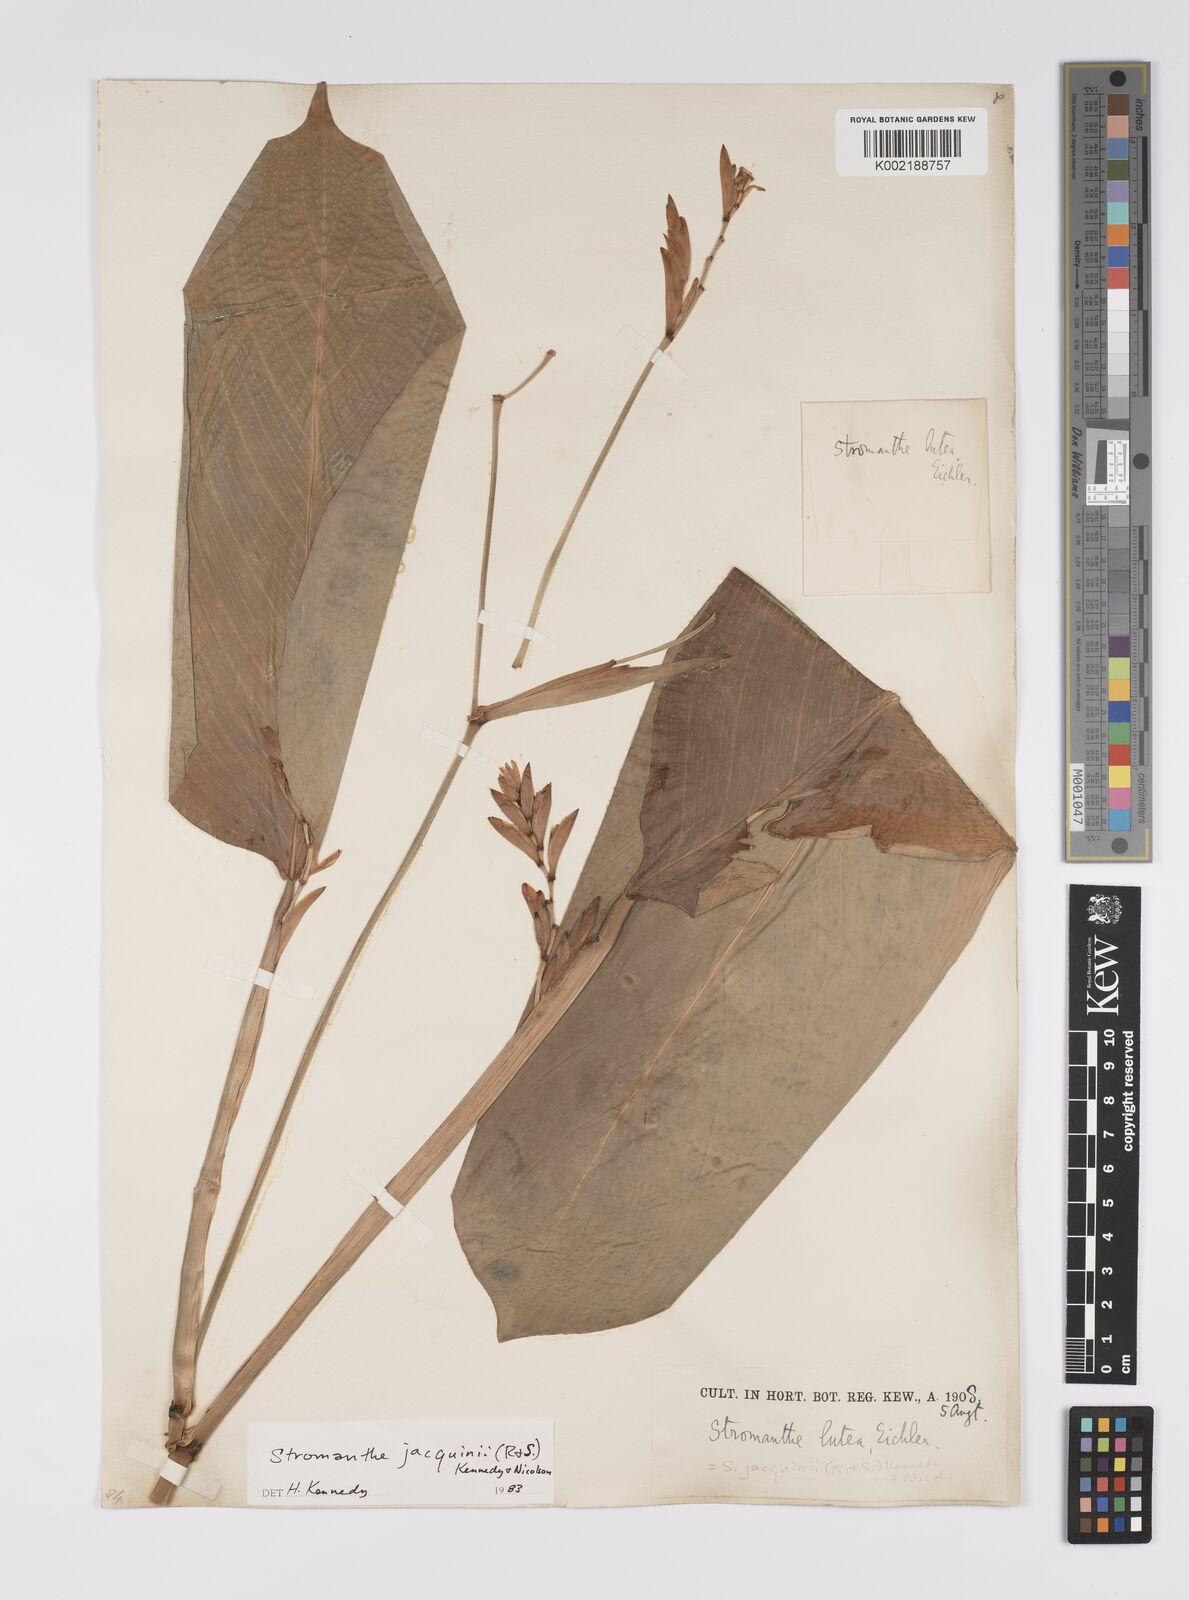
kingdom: Plantae
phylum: Tracheophyta
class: Liliopsida
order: Zingiberales
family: Marantaceae
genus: Stromanthe
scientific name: Stromanthe jacquinii
